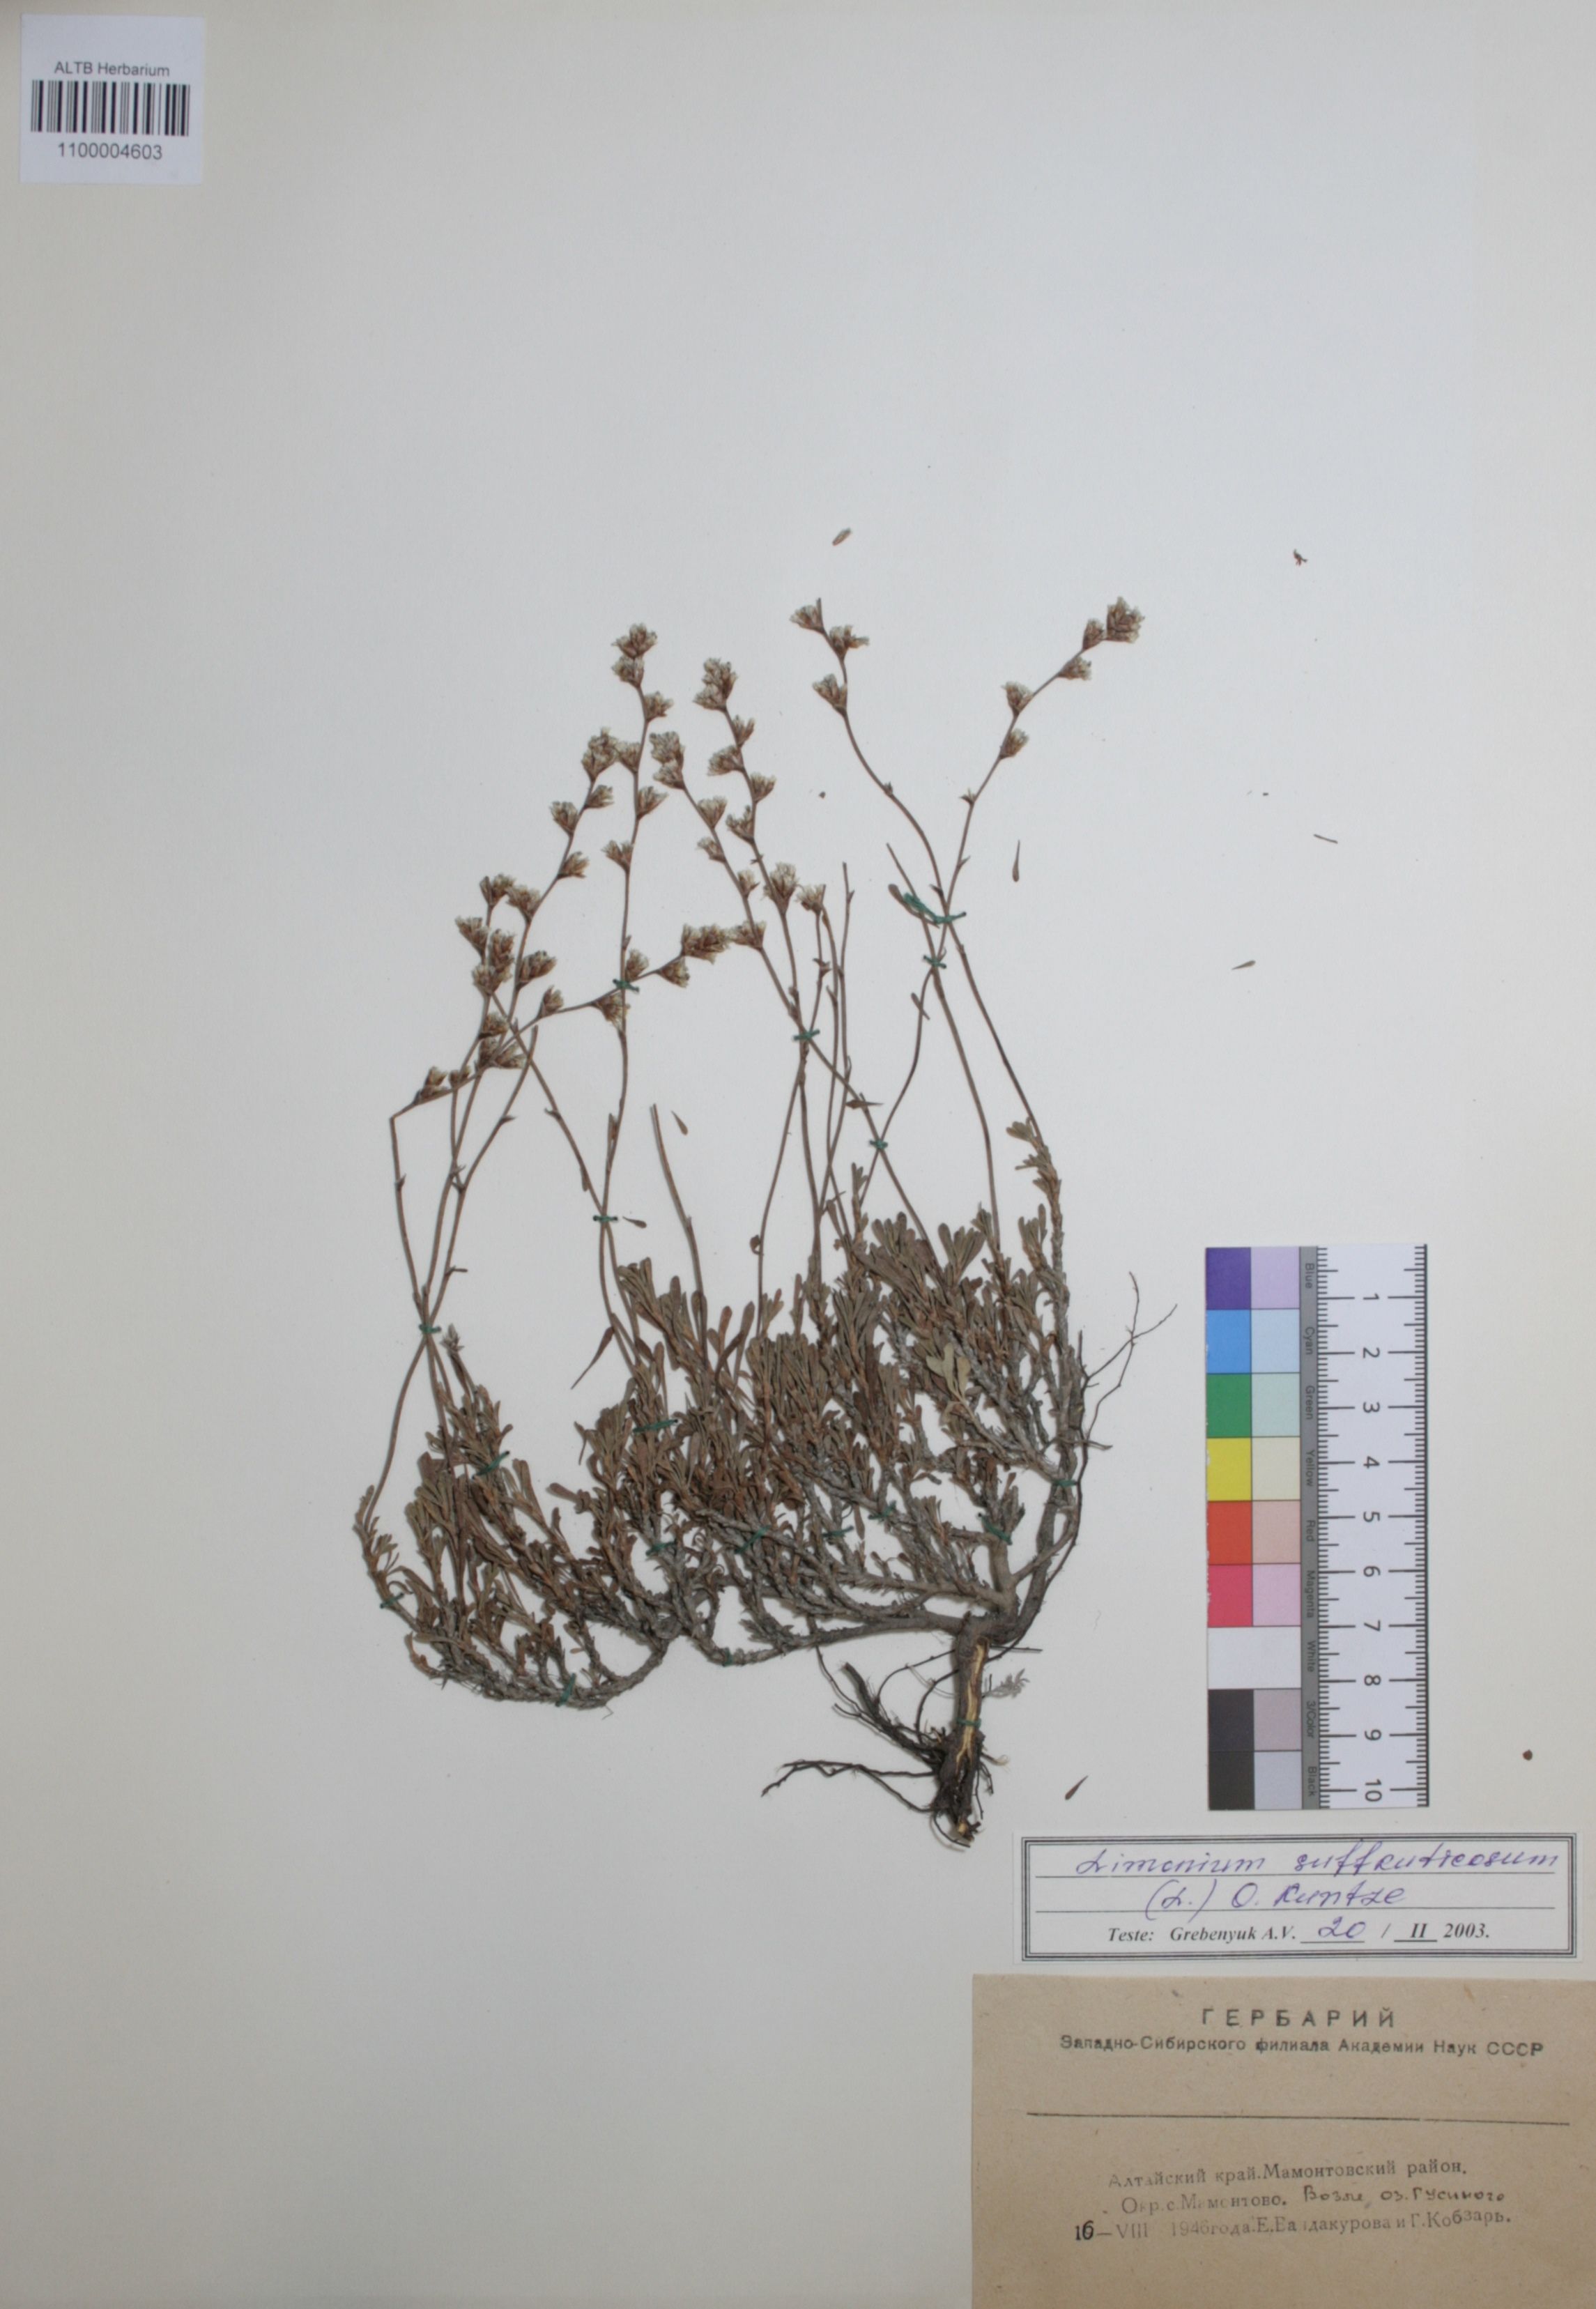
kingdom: Plantae
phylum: Tracheophyta
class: Magnoliopsida
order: Caryophyllales
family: Plumbaginaceae
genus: Limonium
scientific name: Limonium suffruticosum
